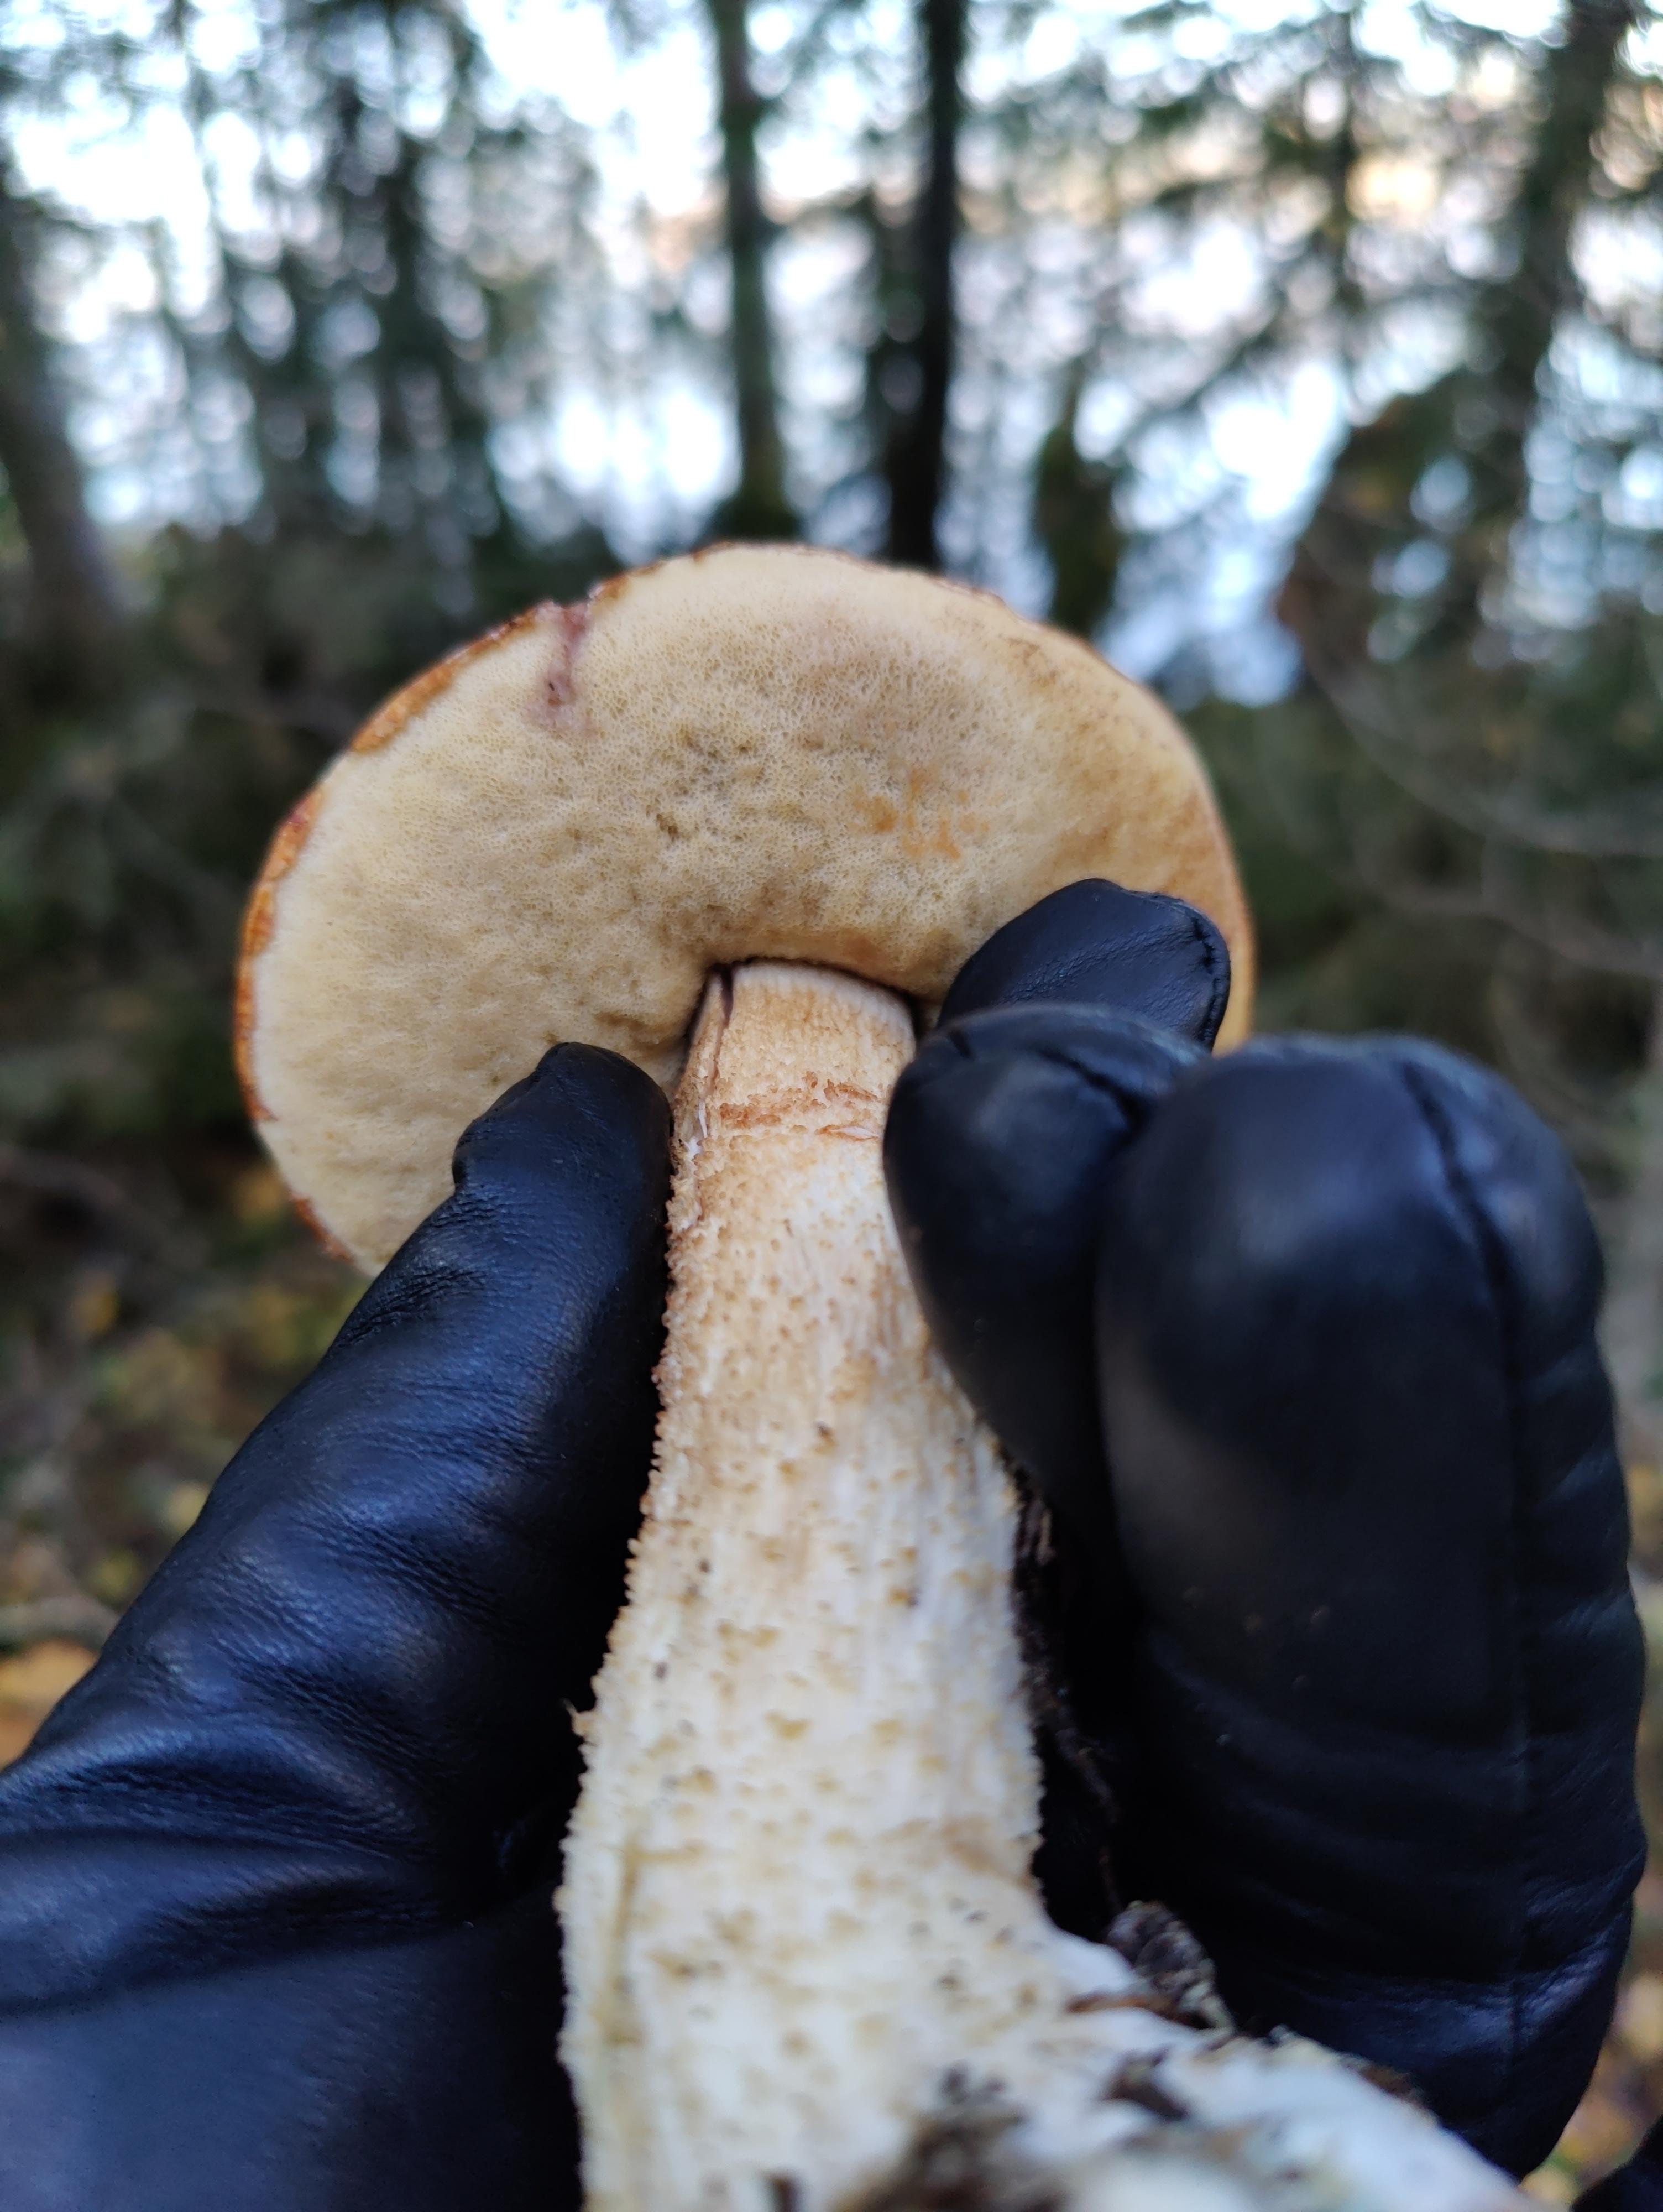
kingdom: Fungi
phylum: Basidiomycota
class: Agaricomycetes
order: Boletales
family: Boletaceae
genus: Leccinum
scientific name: Leccinum albostipitatum
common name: aspe-skælrørhat
